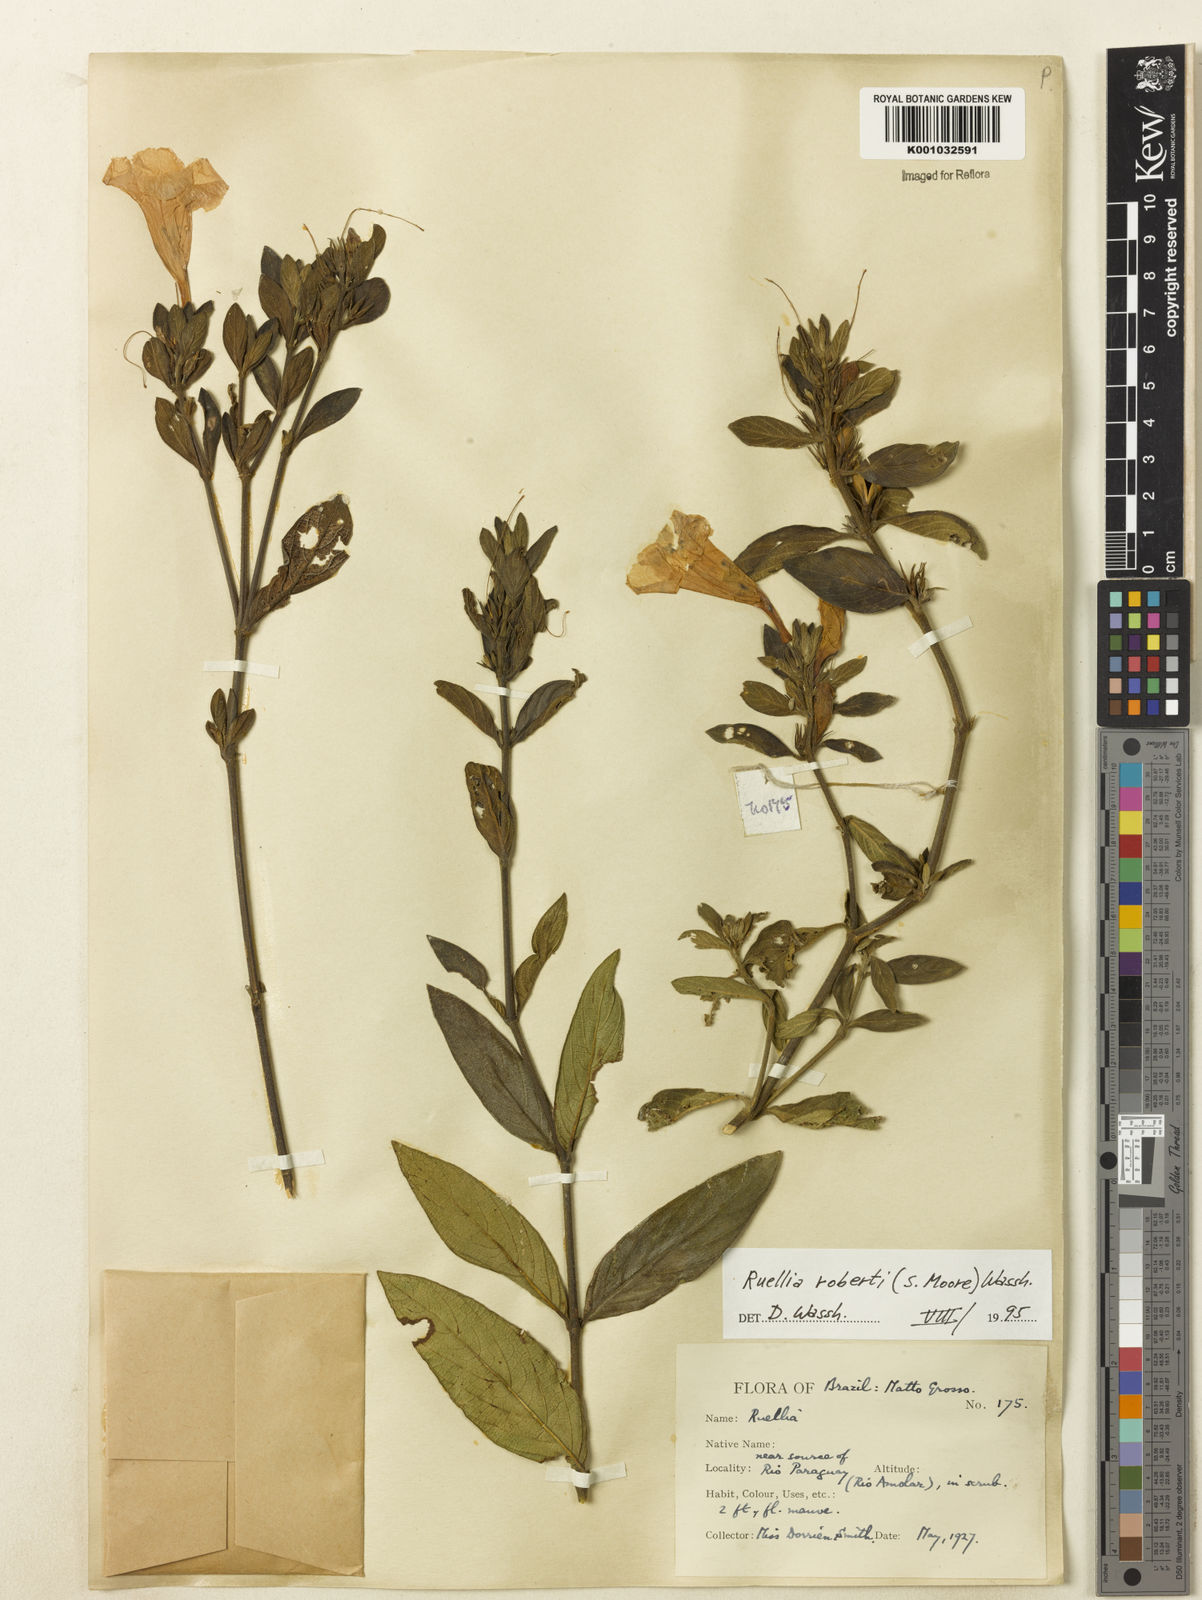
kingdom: Plantae
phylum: Tracheophyta
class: Magnoliopsida
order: Lamiales
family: Acanthaceae
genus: Ruellia
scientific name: Ruellia
